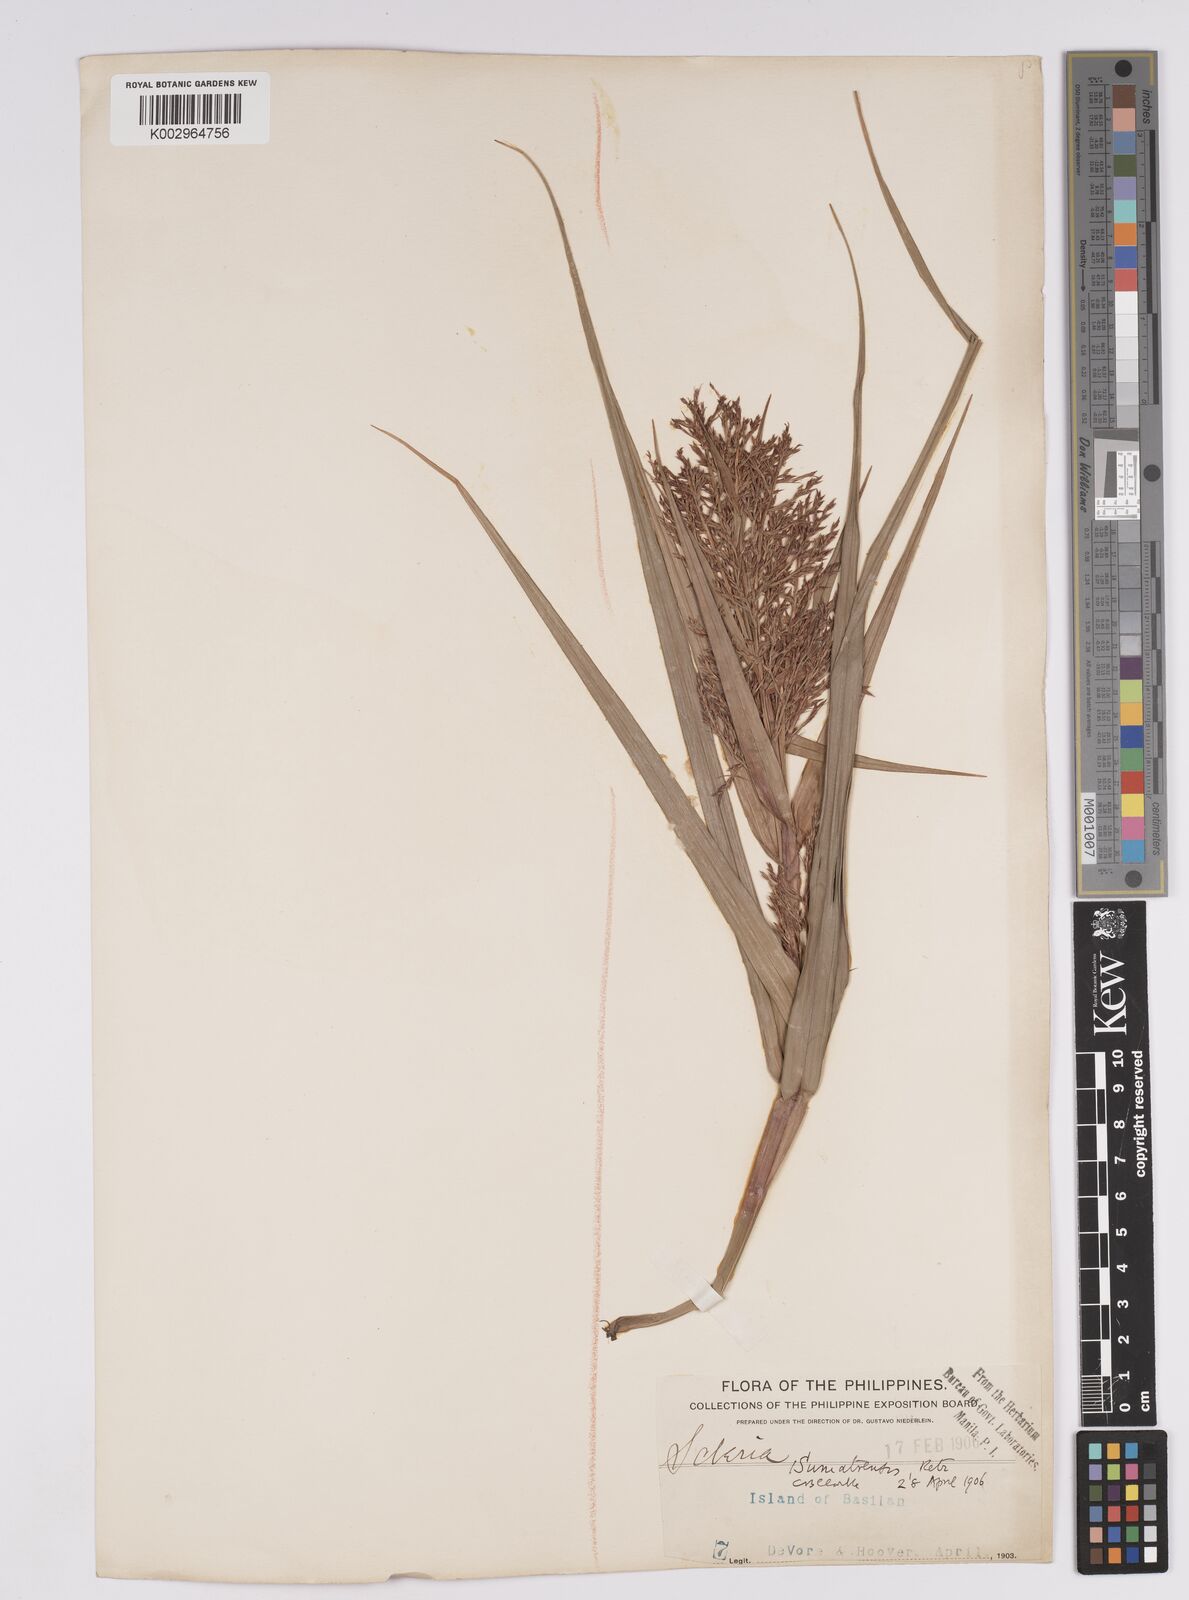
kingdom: Plantae
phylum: Tracheophyta
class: Liliopsida
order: Poales
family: Cyperaceae
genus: Scleria
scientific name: Scleria sumatrensis
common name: Sumatran scleria
